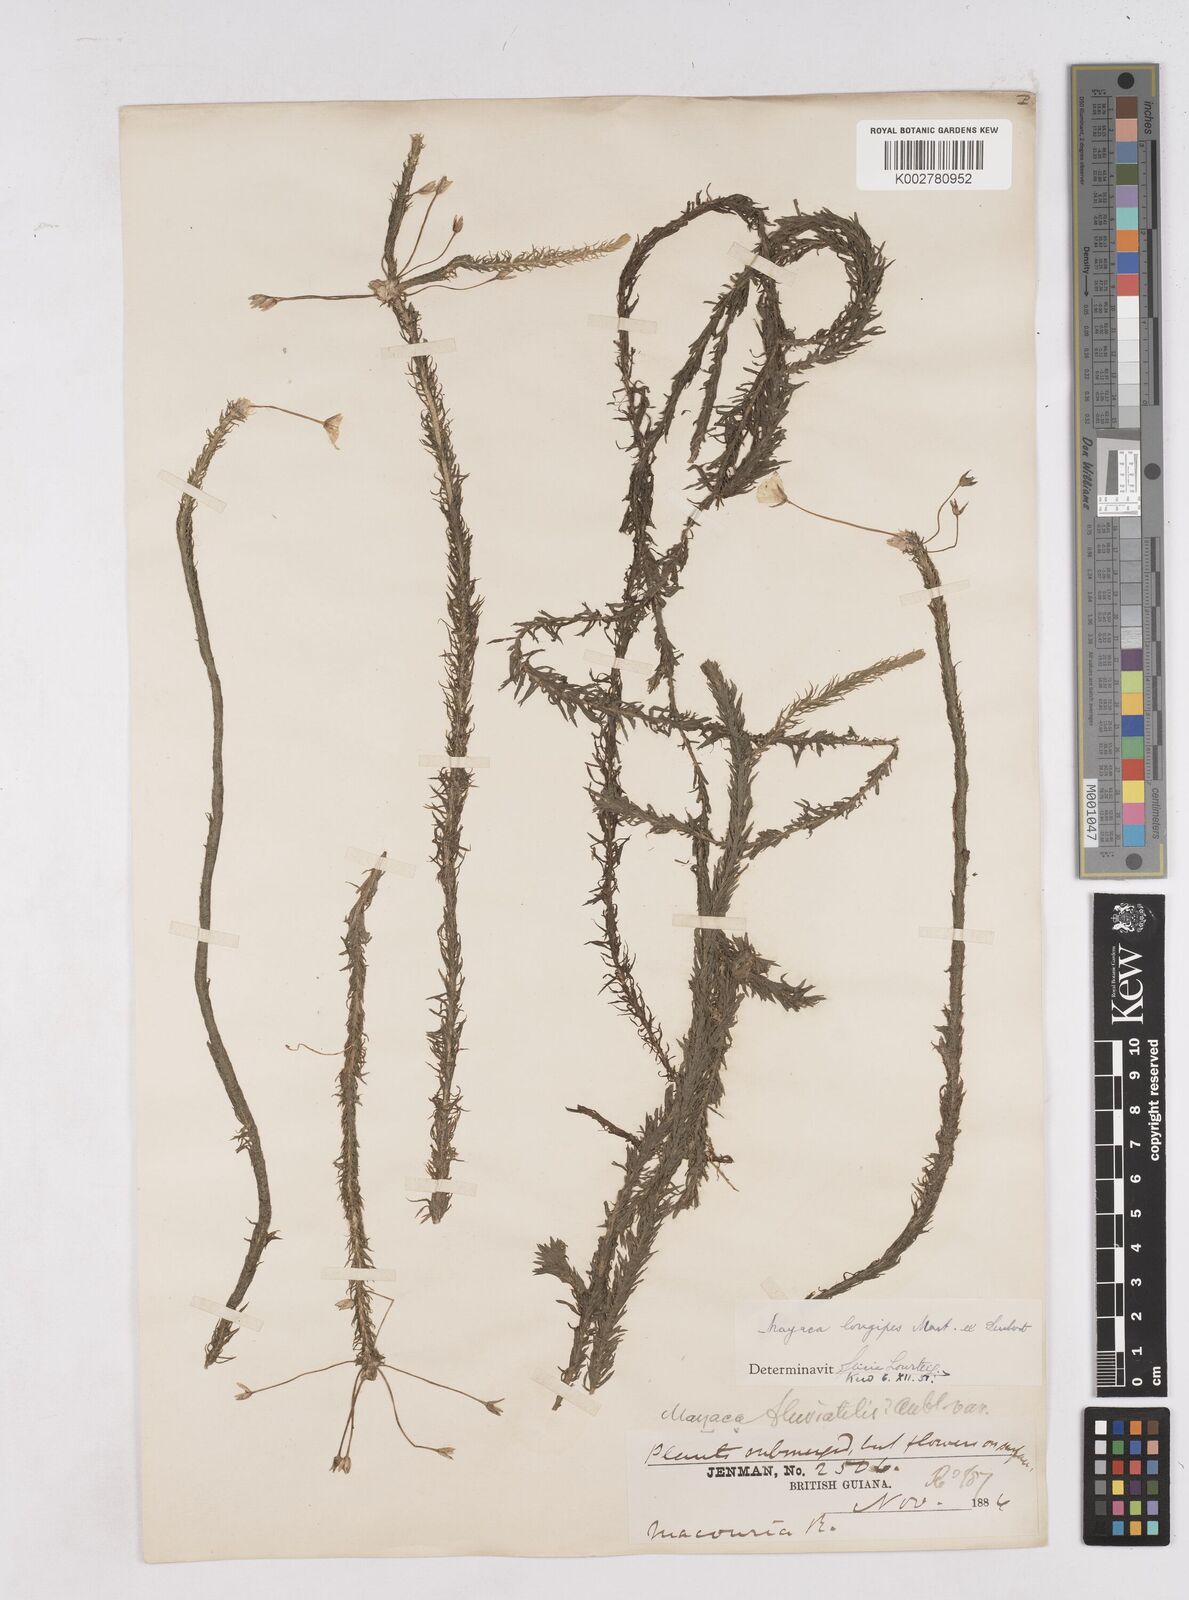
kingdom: Plantae
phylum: Tracheophyta
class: Liliopsida
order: Poales
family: Mayacaceae
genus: Mayaca
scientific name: Mayaca fluviatilis
